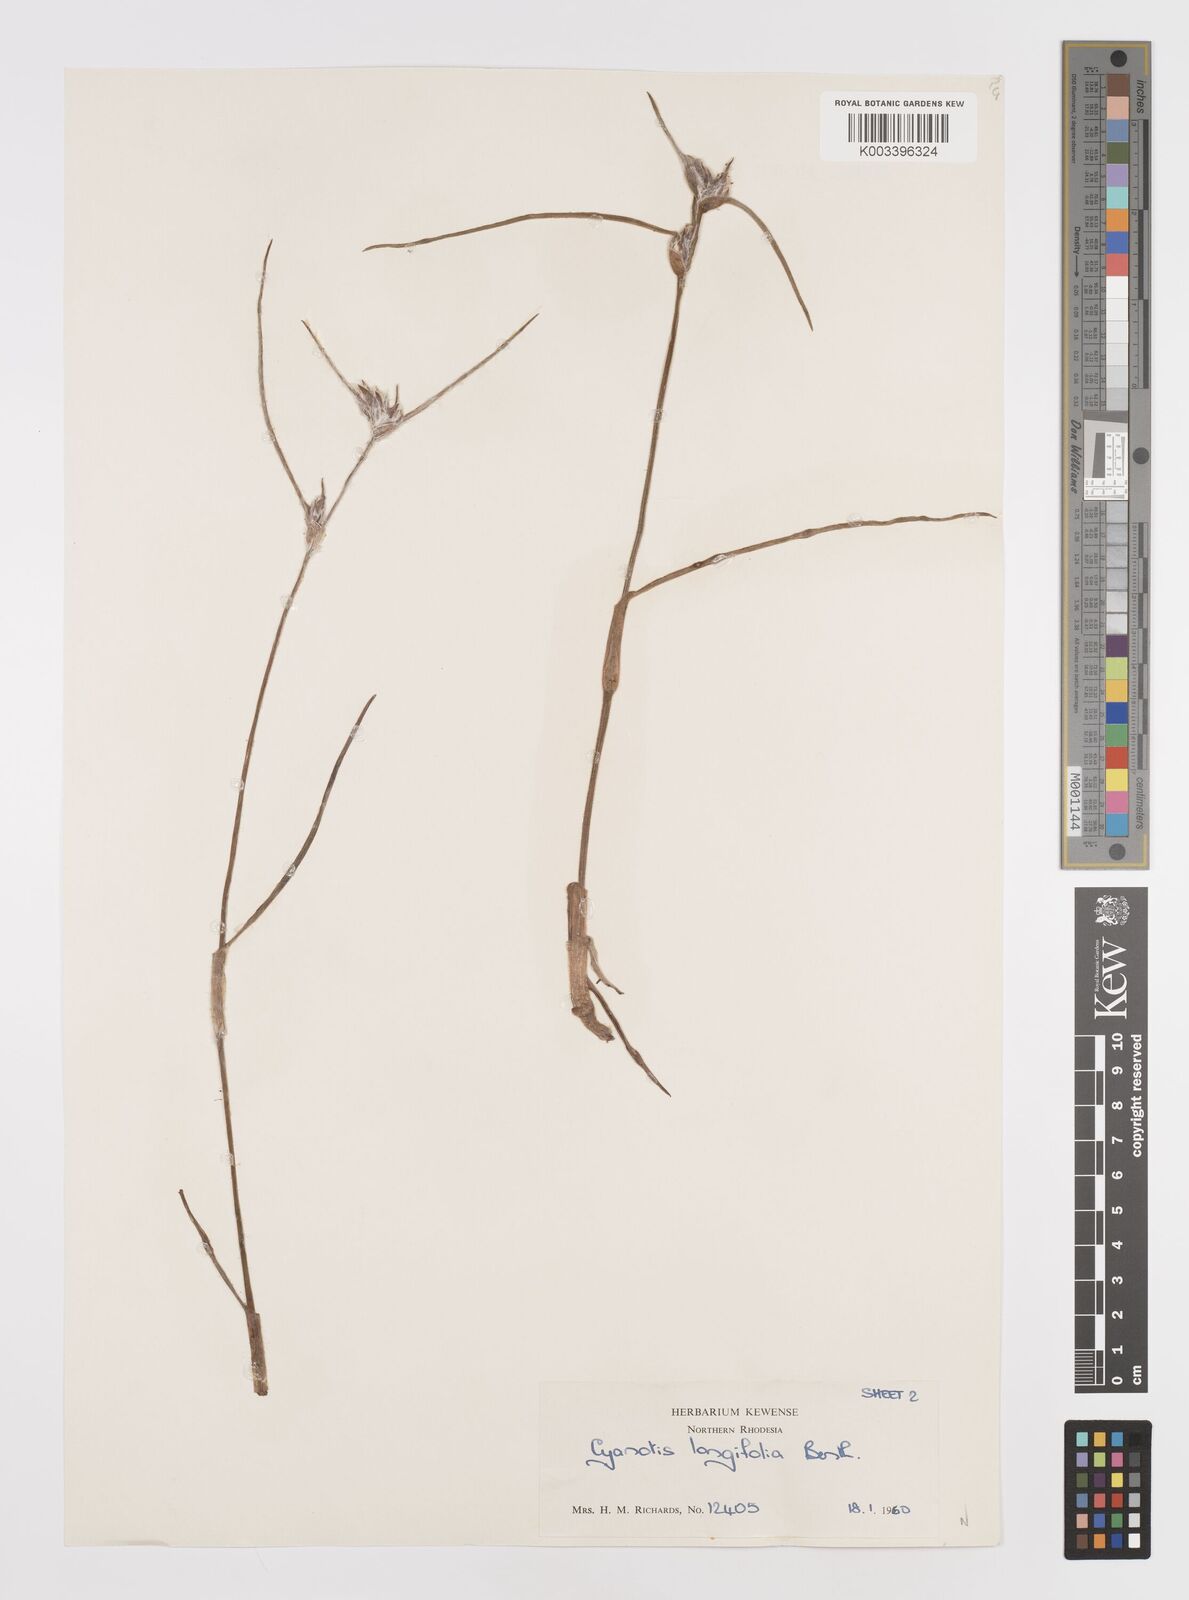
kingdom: Plantae
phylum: Tracheophyta
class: Liliopsida
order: Commelinales
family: Commelinaceae
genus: Cyanotis
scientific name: Cyanotis longifolia
